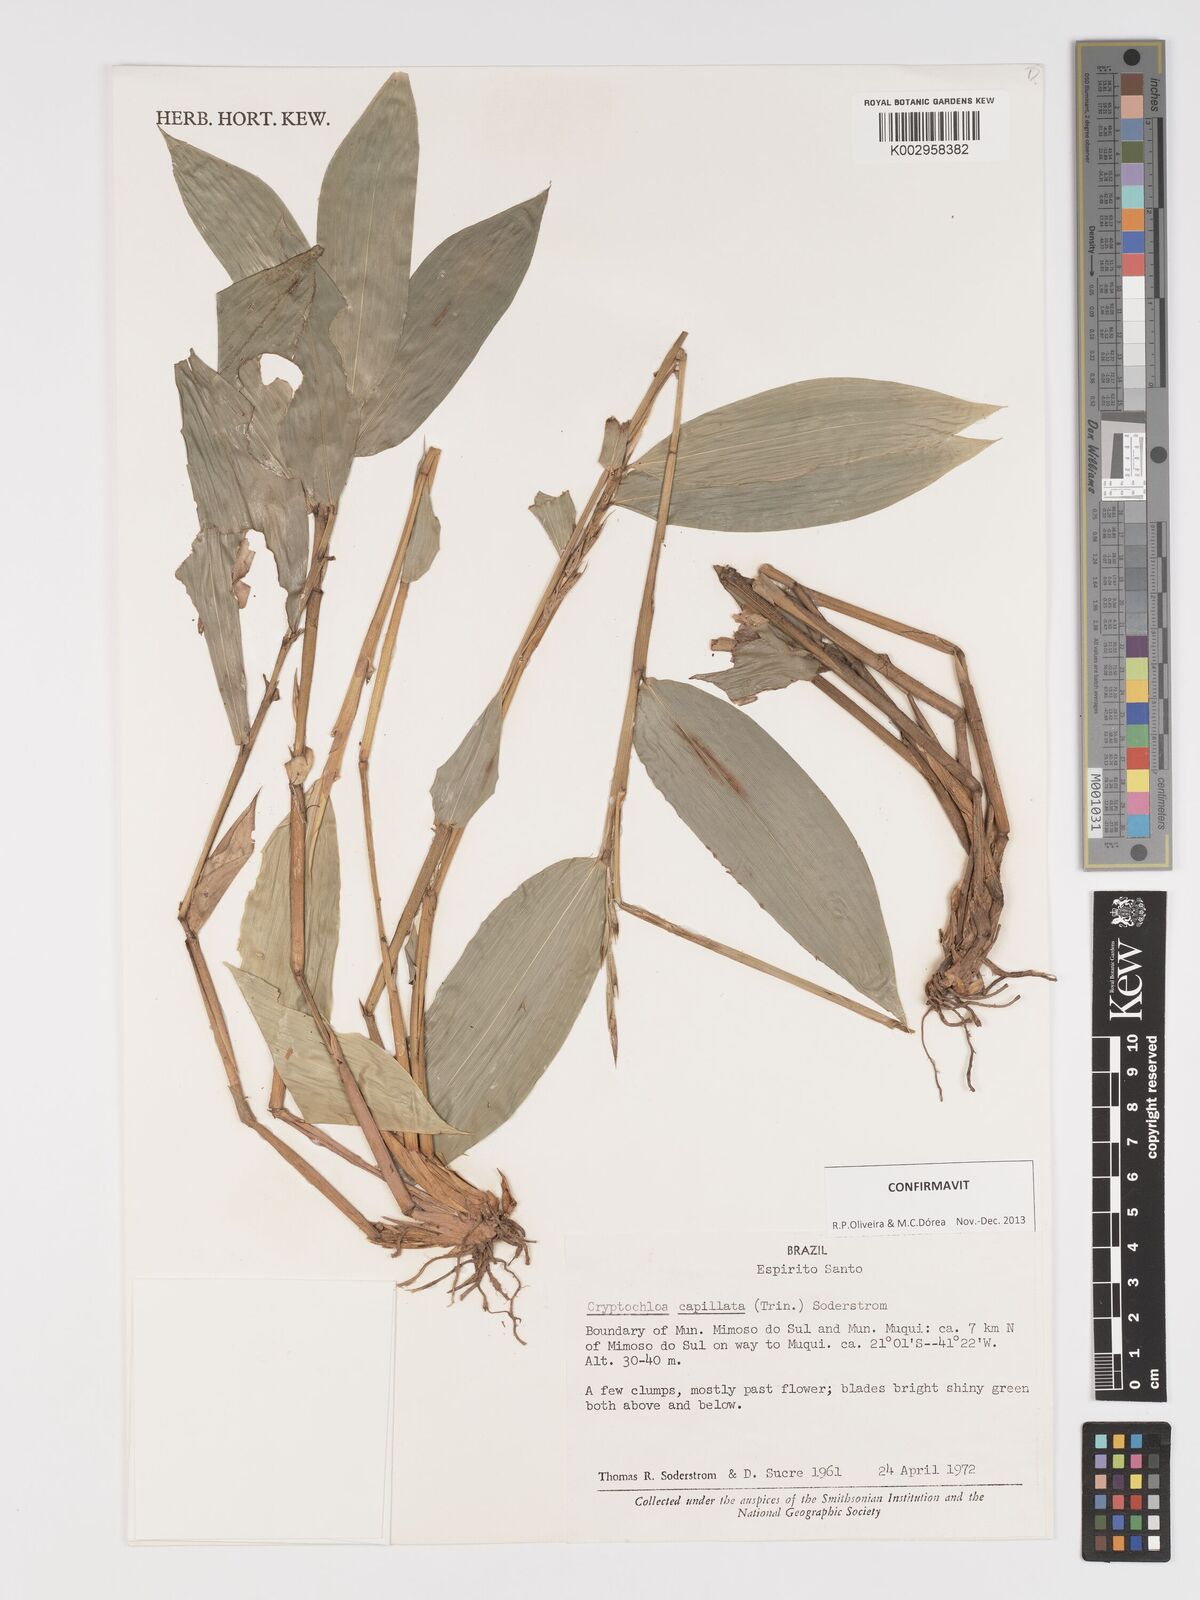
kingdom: Plantae
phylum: Tracheophyta
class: Liliopsida
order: Poales
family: Poaceae
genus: Cryptochloa
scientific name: Cryptochloa capillata
